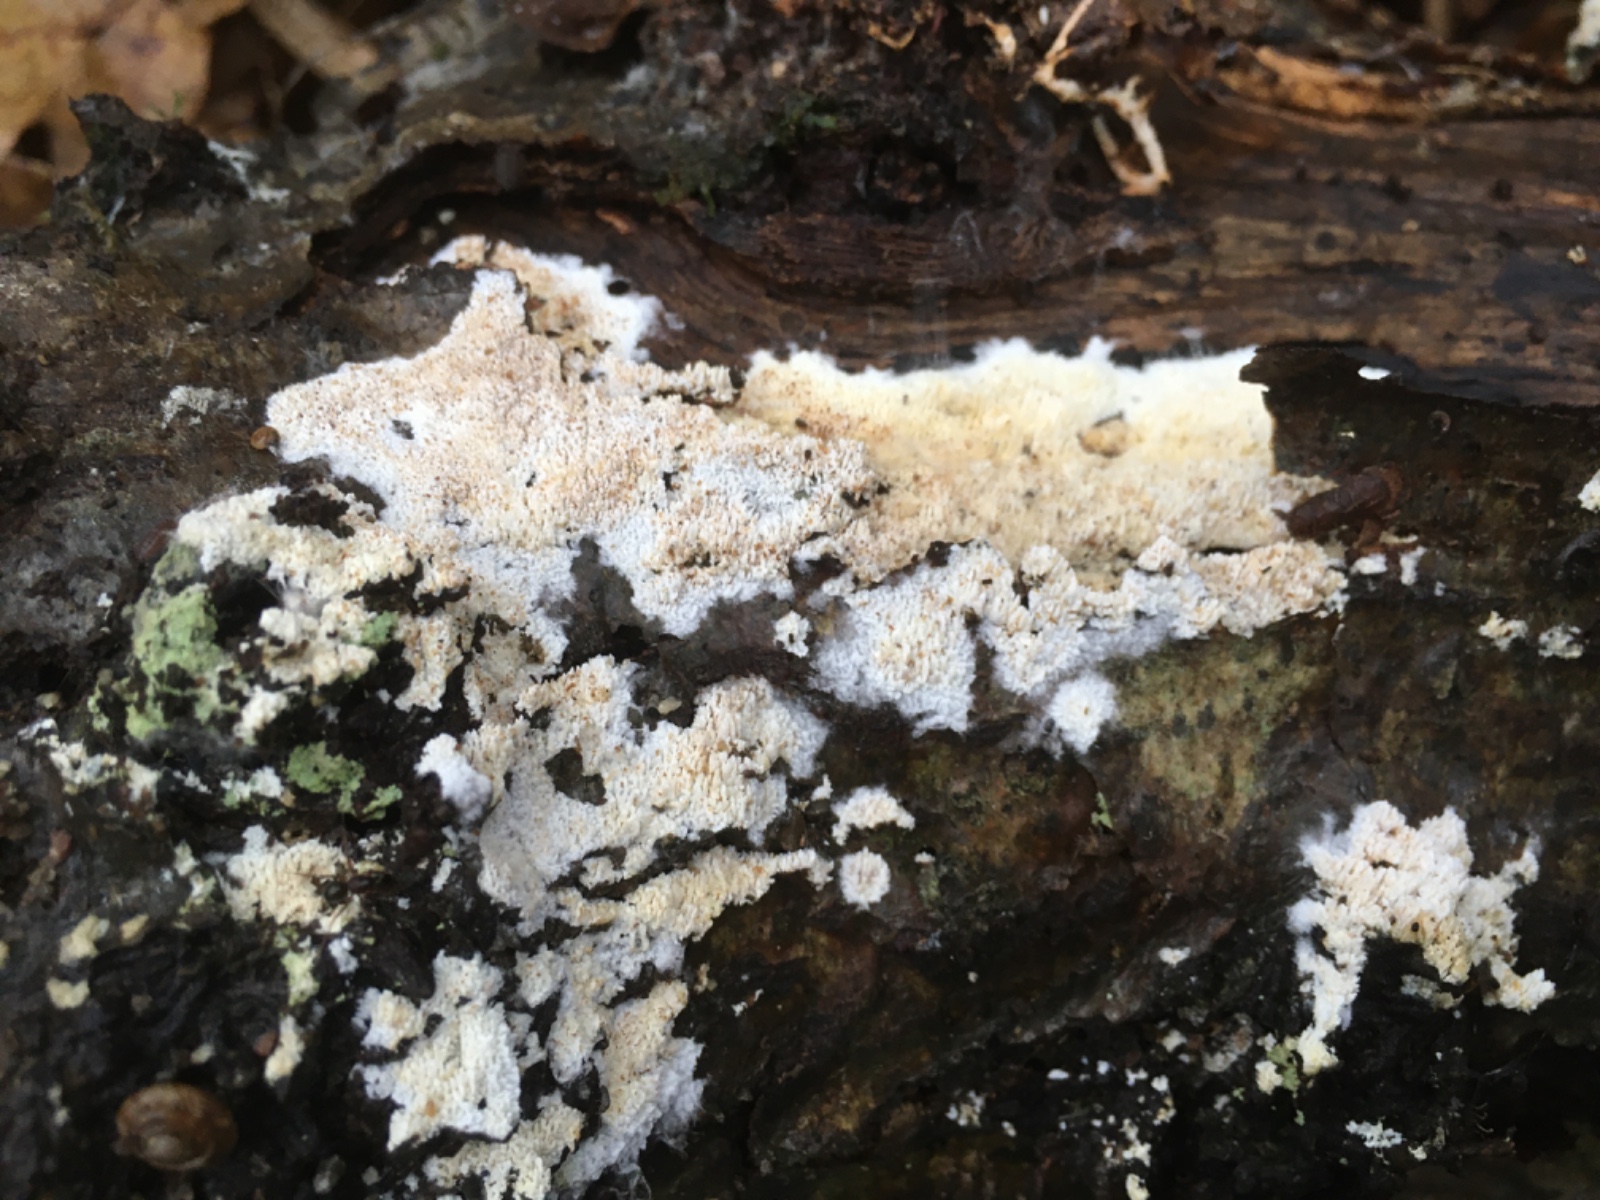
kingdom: Fungi
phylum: Basidiomycota
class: Agaricomycetes
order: Hymenochaetales
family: Schizoporaceae
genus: Xylodon
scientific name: Xylodon
